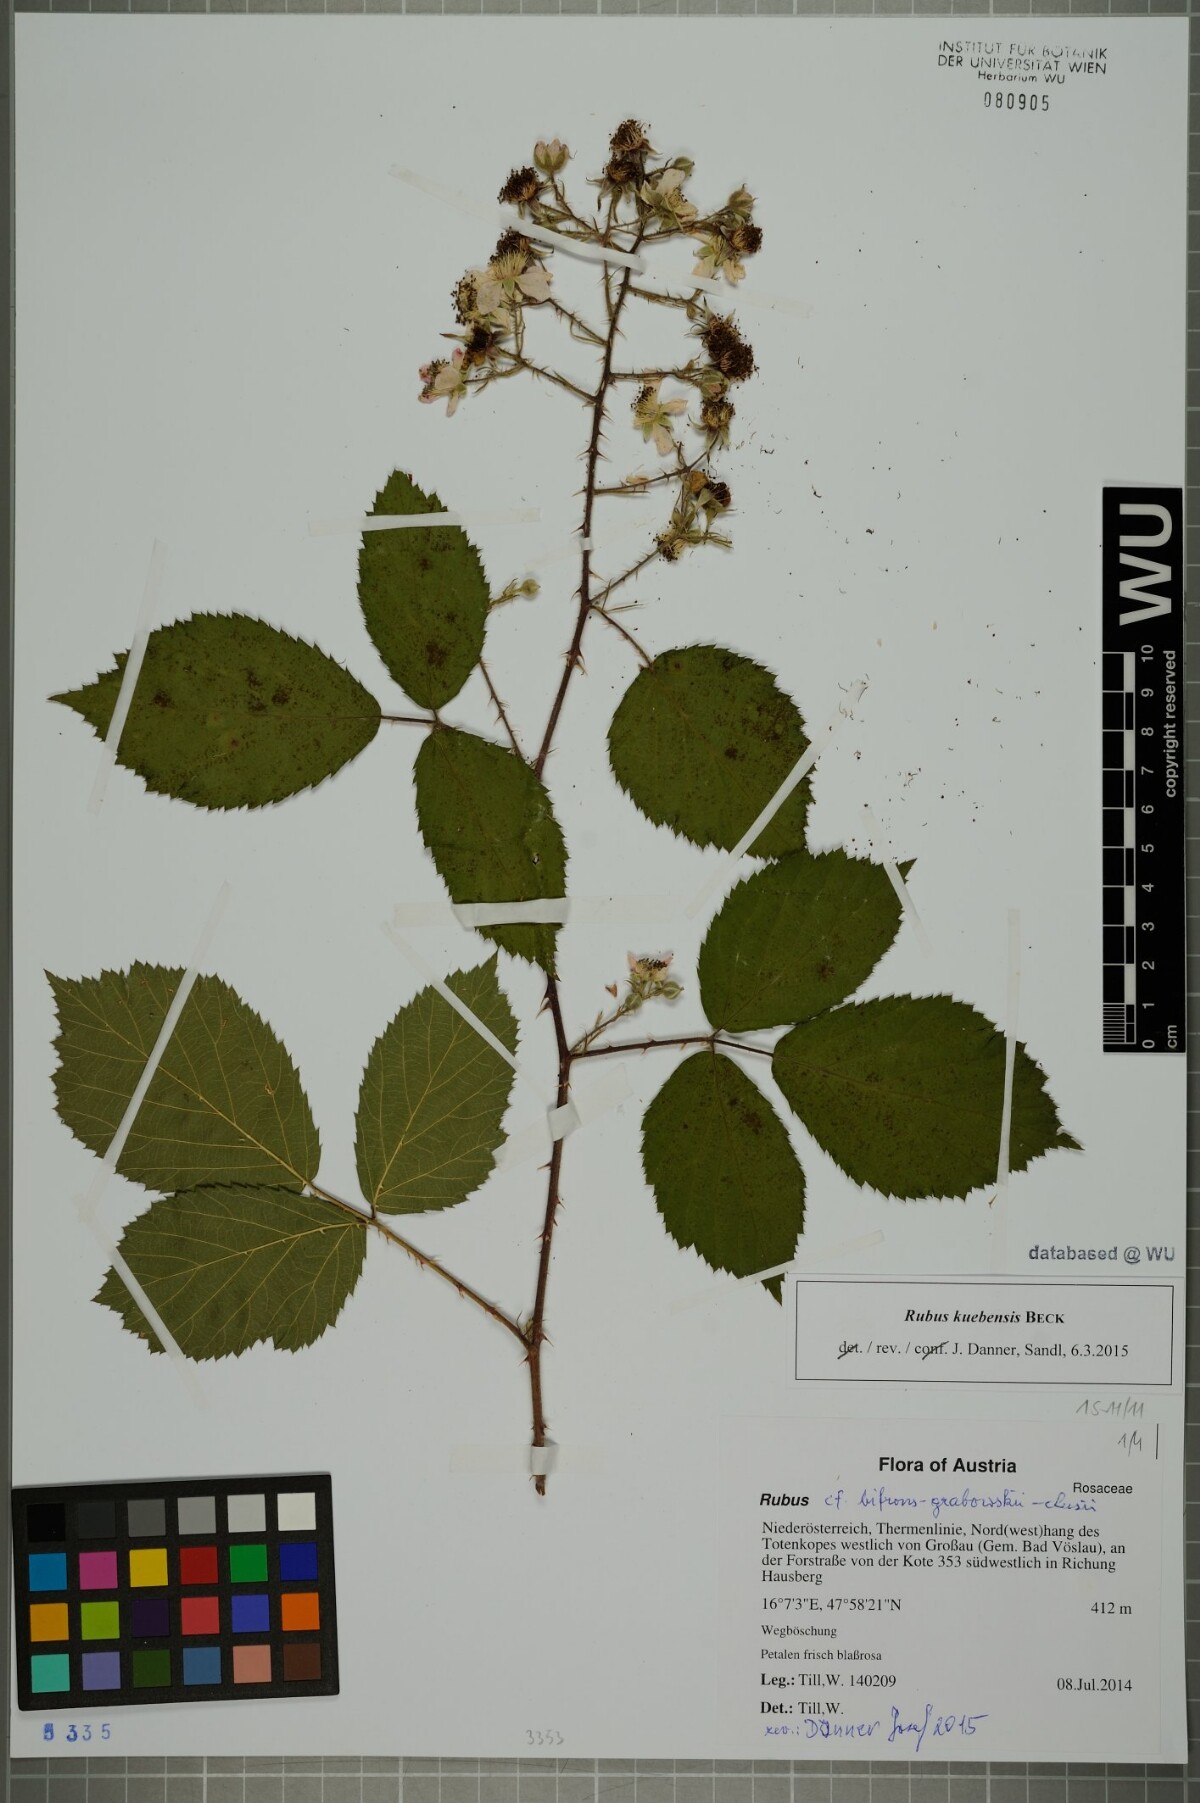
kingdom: Plantae
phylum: Tracheophyta
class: Magnoliopsida
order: Rosales
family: Rosaceae
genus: Rubus
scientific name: Rubus kuebensis
